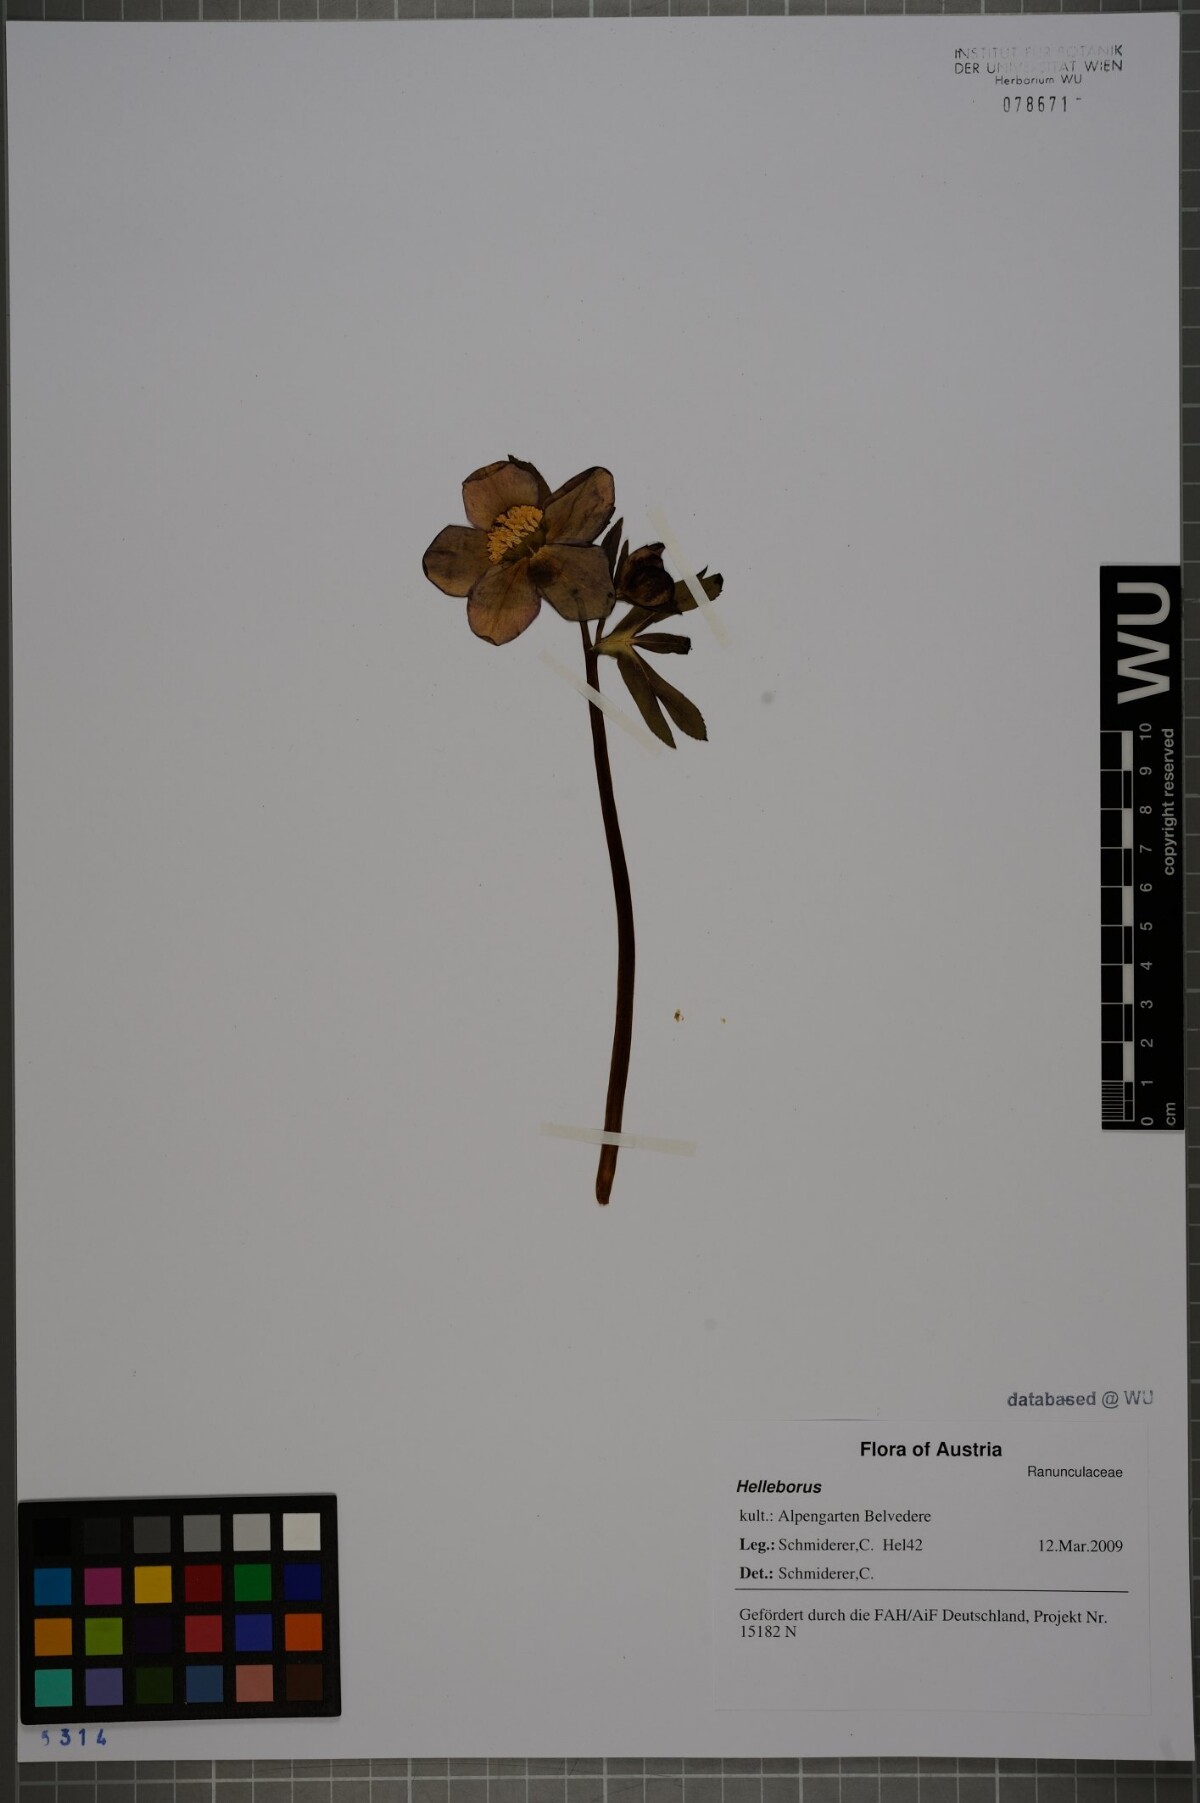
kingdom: Plantae
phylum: Tracheophyta
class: Magnoliopsida
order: Ranunculales
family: Ranunculaceae
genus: Helleborus
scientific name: Helleborus
